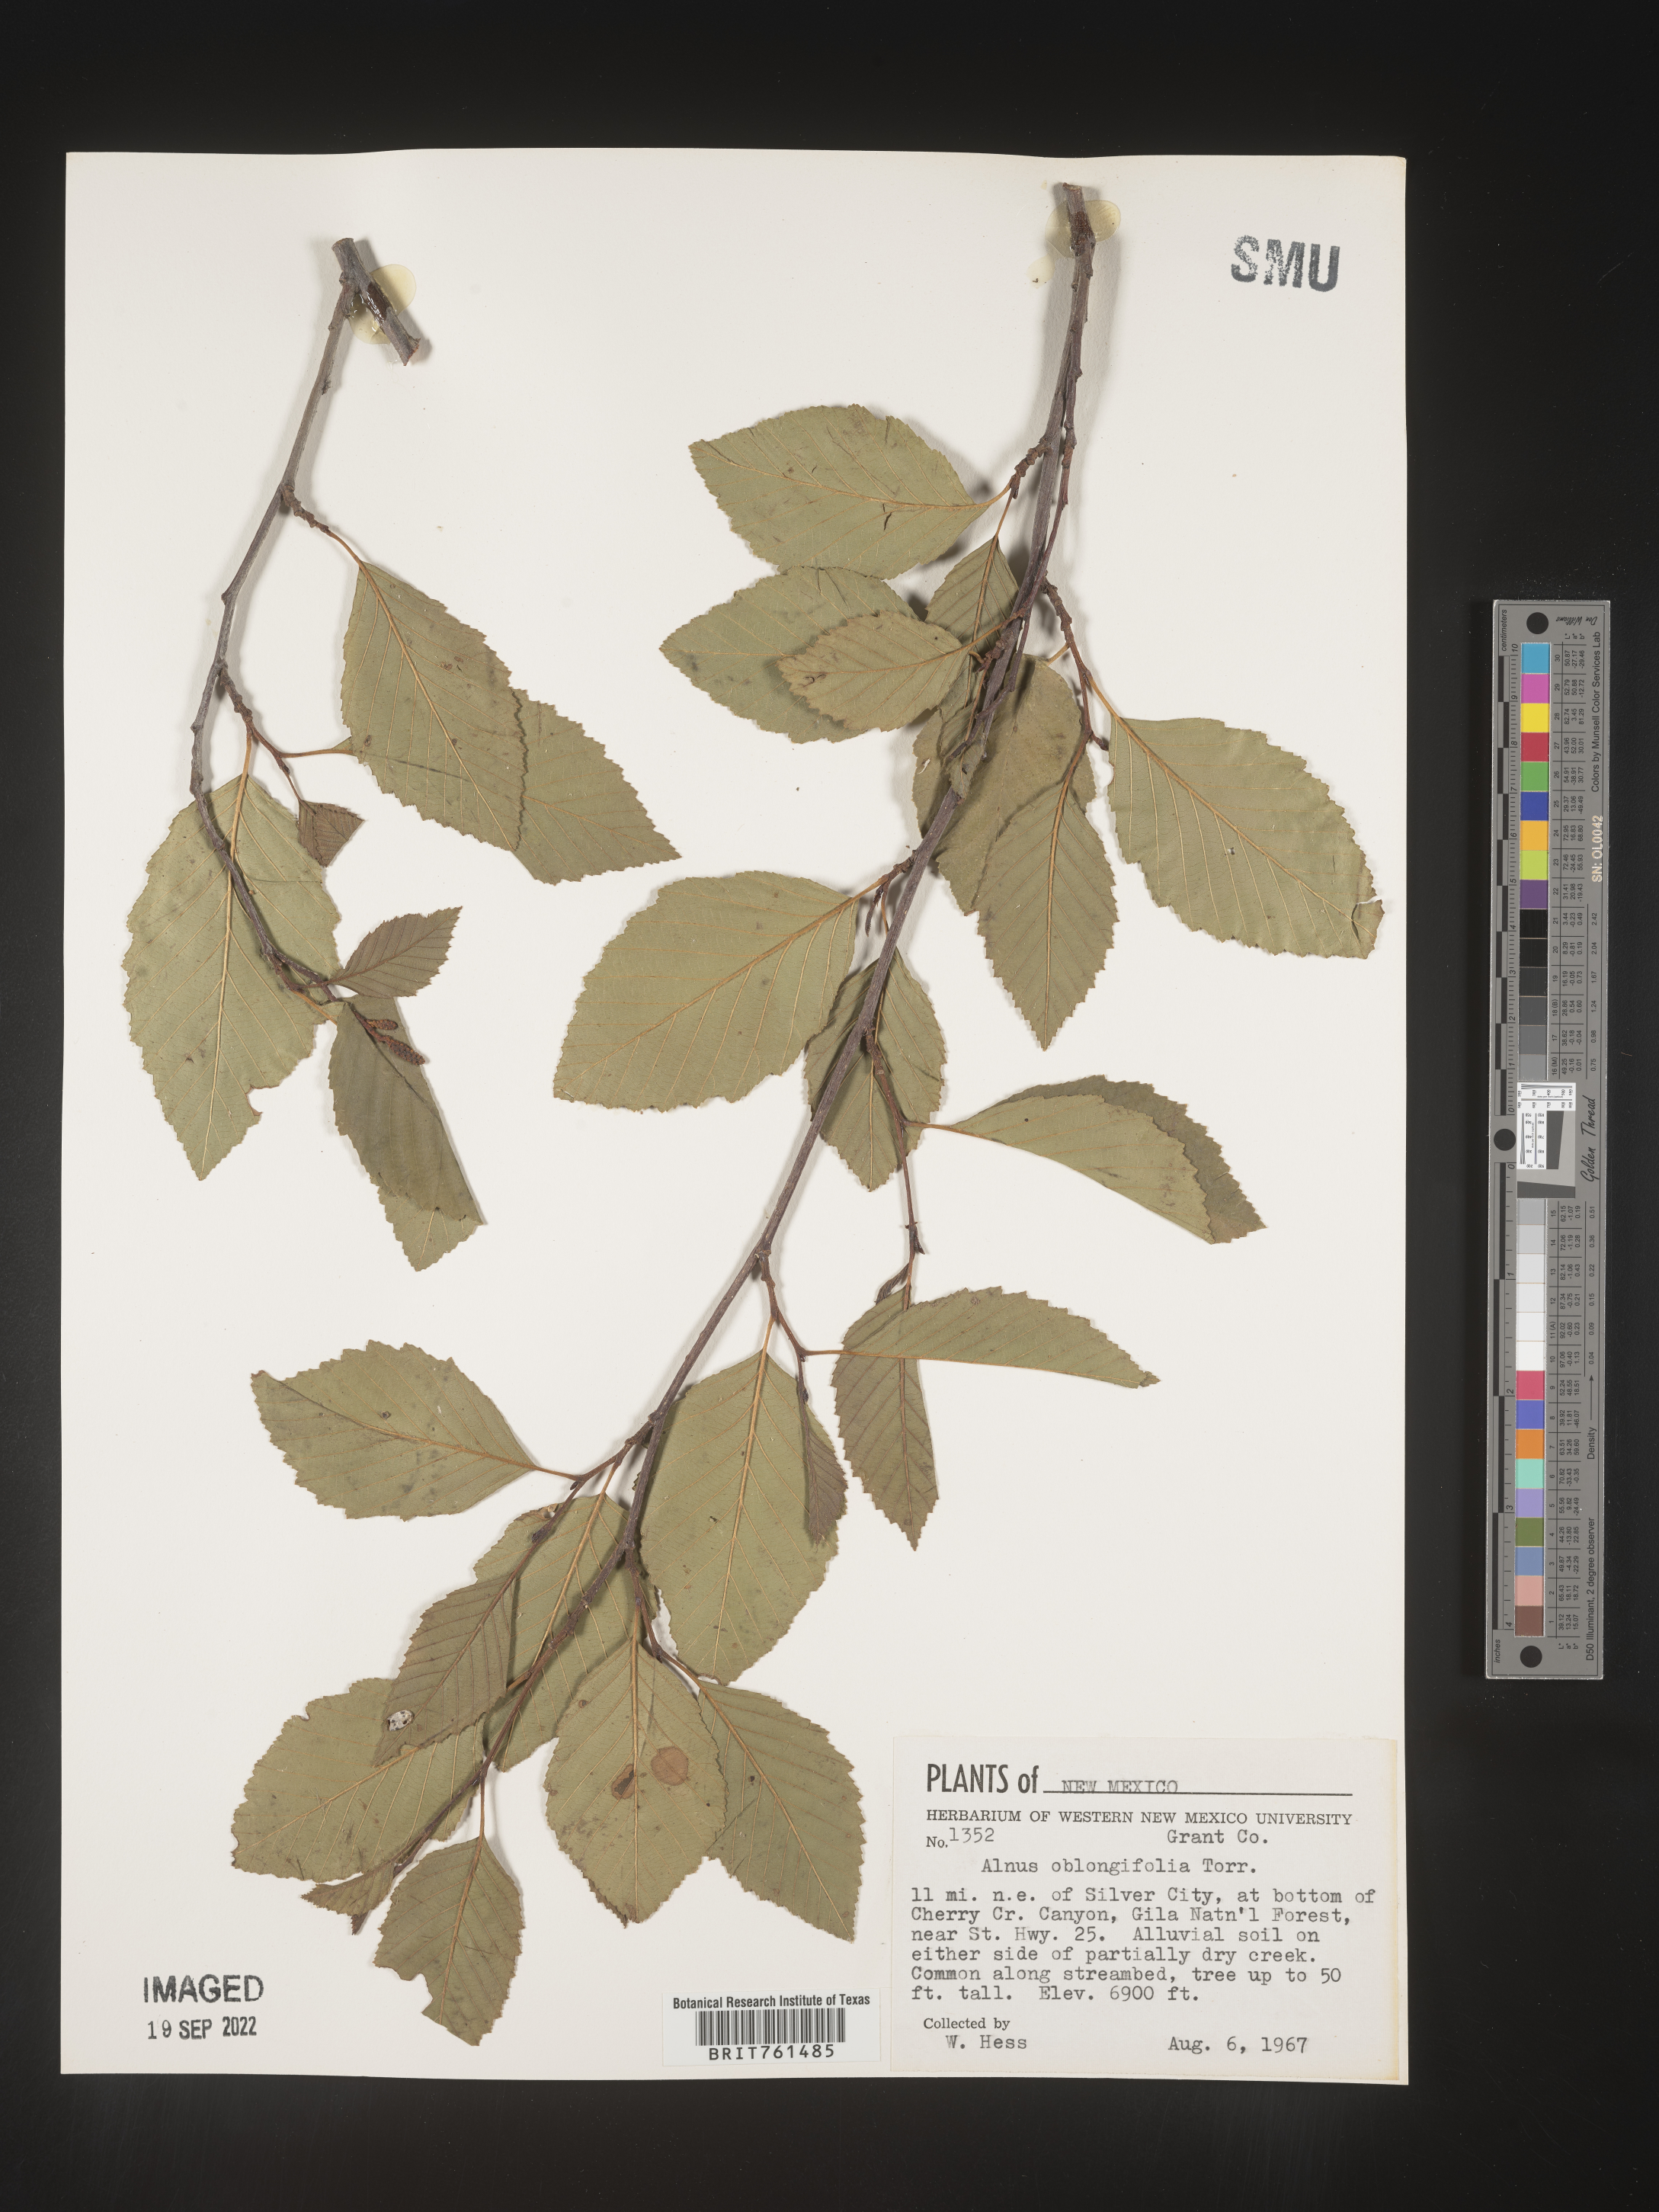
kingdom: Plantae
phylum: Tracheophyta
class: Magnoliopsida
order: Fagales
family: Betulaceae
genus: Alnus
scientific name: Alnus
